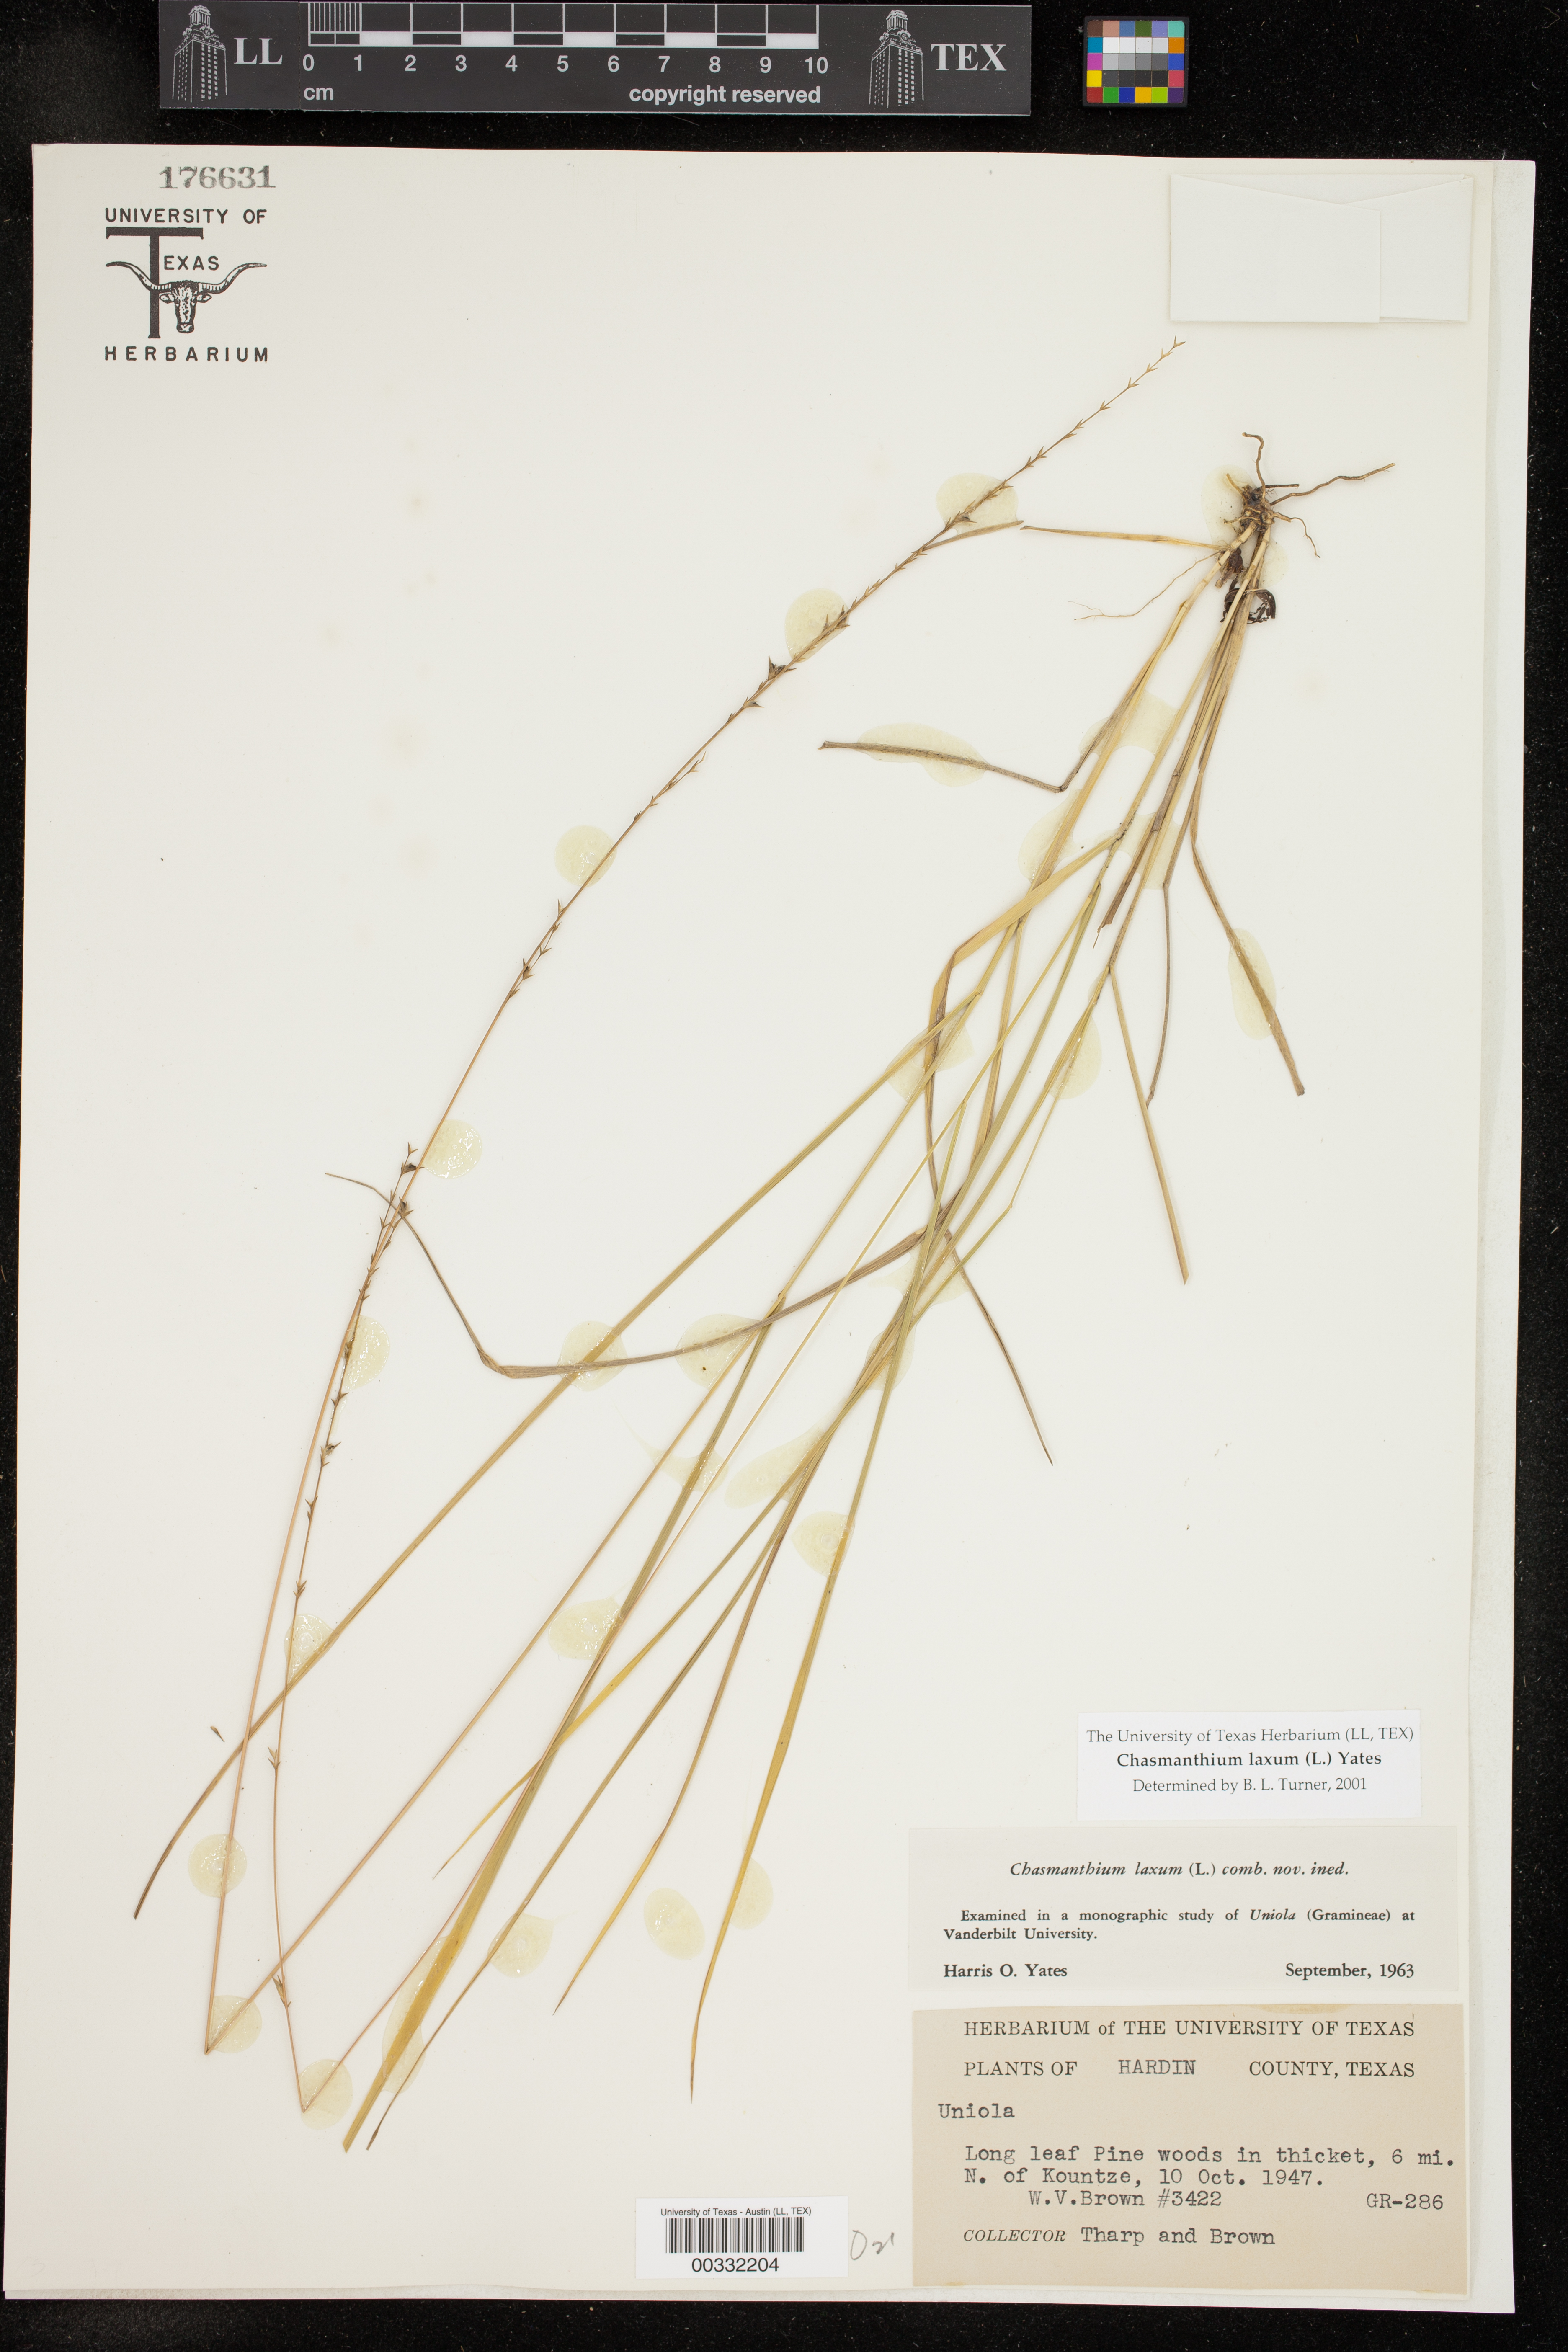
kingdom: Plantae
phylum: Tracheophyta
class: Liliopsida
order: Poales
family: Poaceae
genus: Chasmanthium
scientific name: Chasmanthium laxum
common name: Slender chasmanthium
